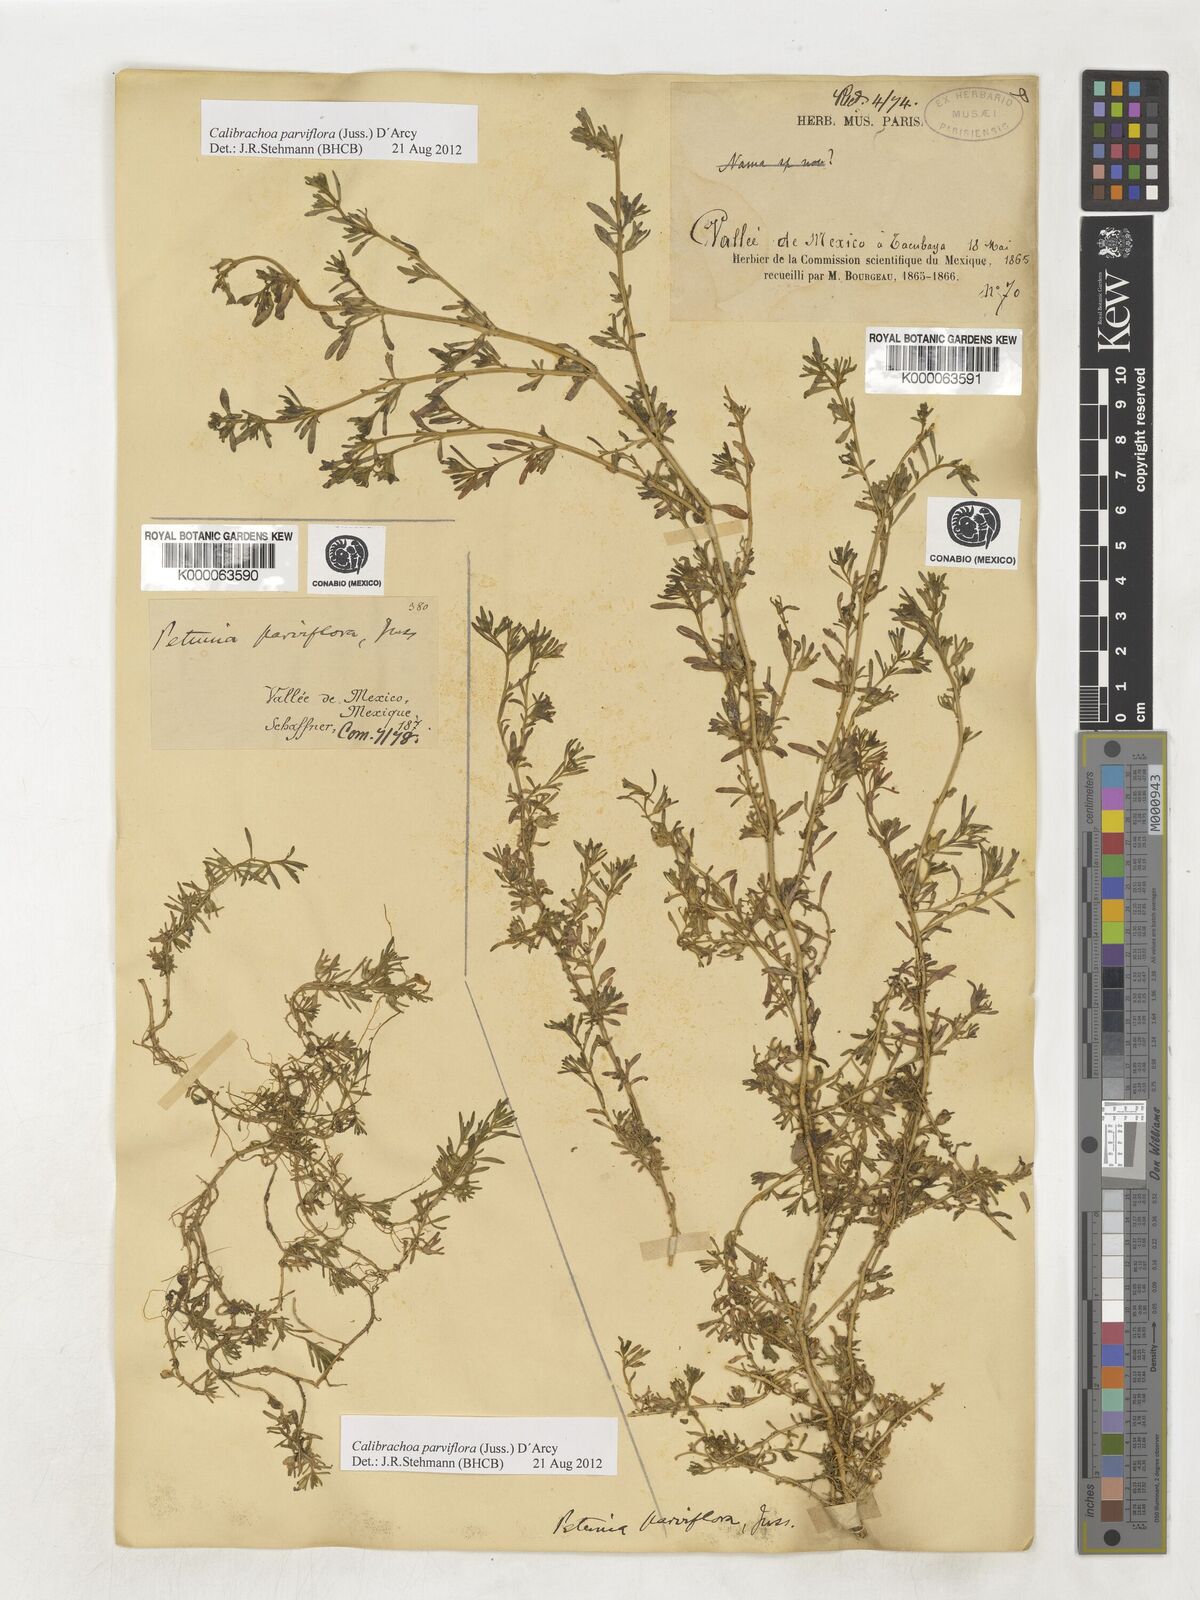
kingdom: Plantae
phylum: Tracheophyta
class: Magnoliopsida
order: Solanales
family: Solanaceae
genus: Calibrachoa
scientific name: Calibrachoa parviflora
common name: Seaside petunia
